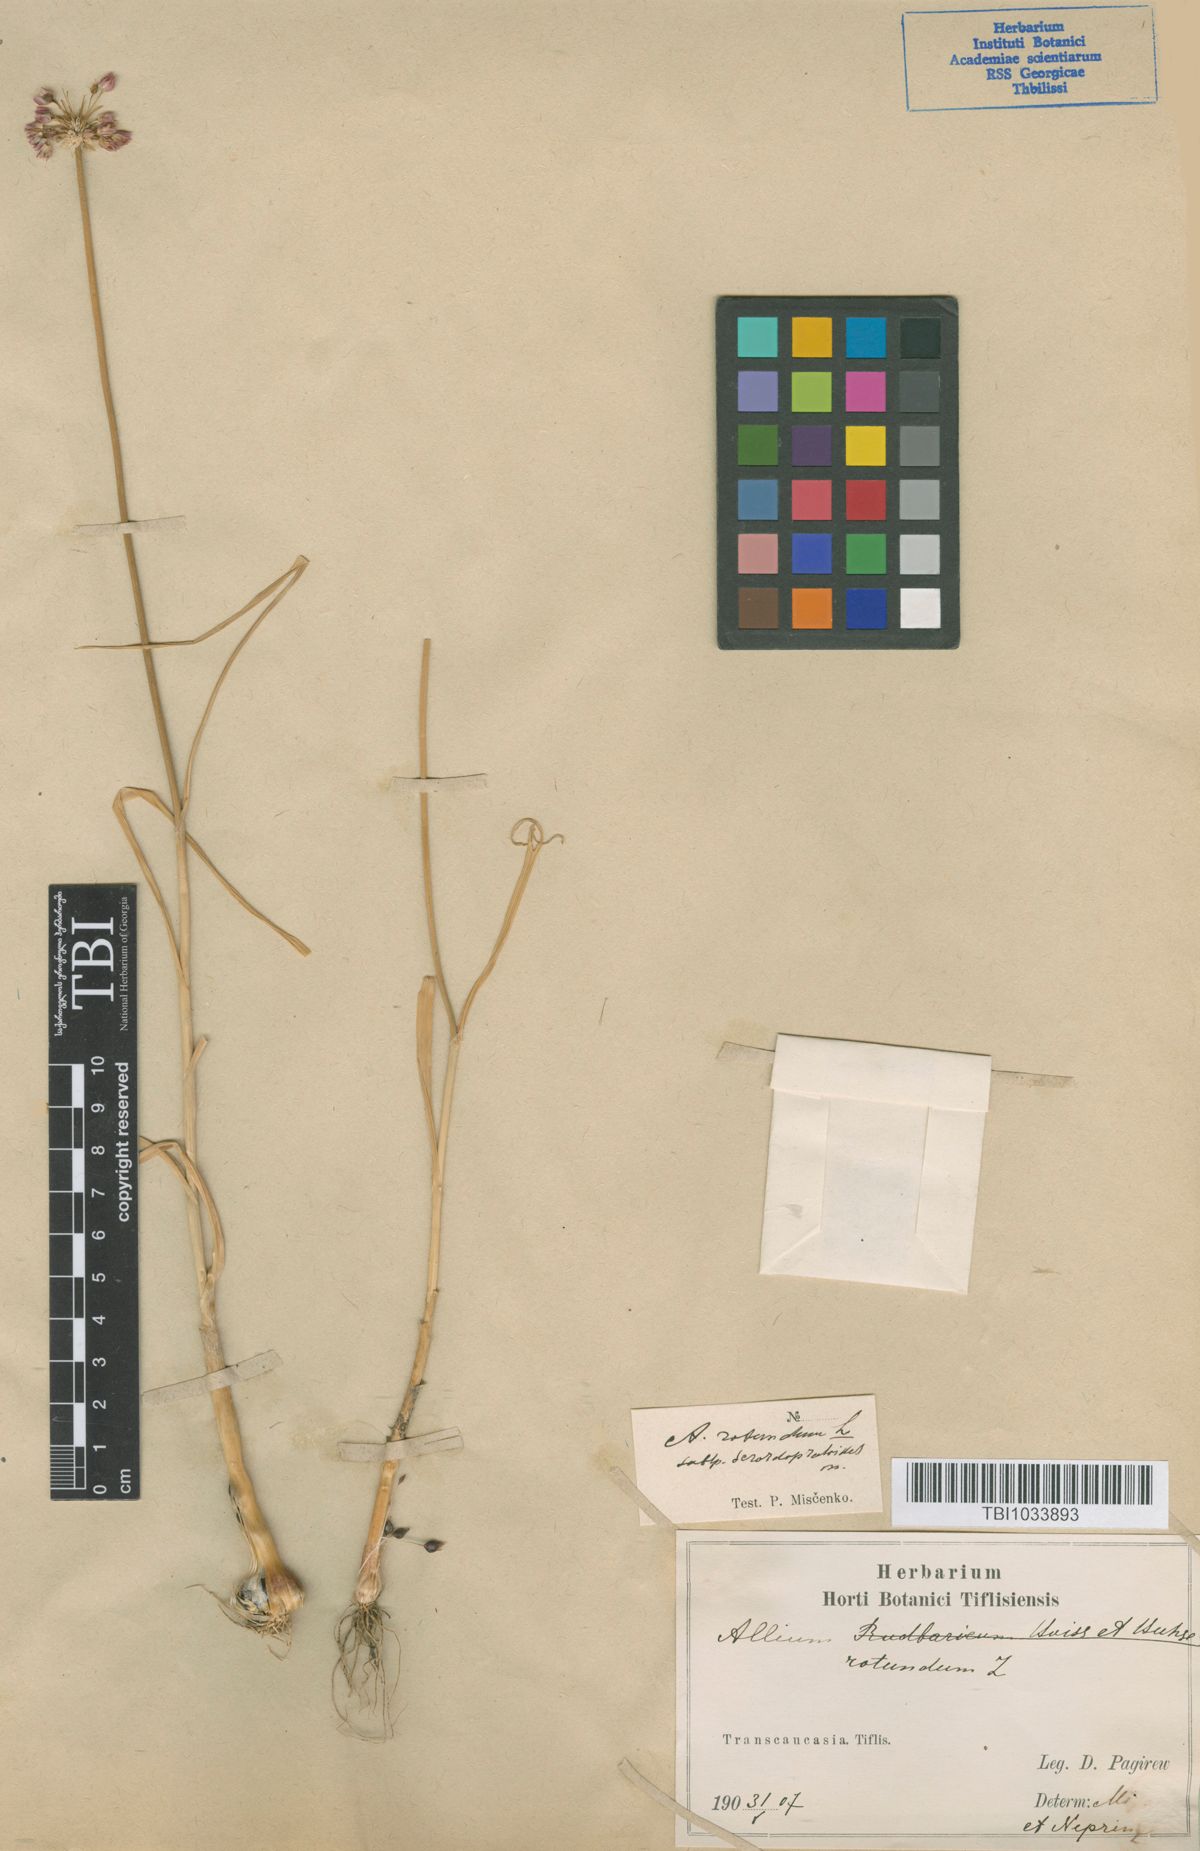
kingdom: Plantae
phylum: Tracheophyta
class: Liliopsida
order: Asparagales
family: Amaryllidaceae
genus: Allium
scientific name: Allium rotundum
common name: Sand leek
